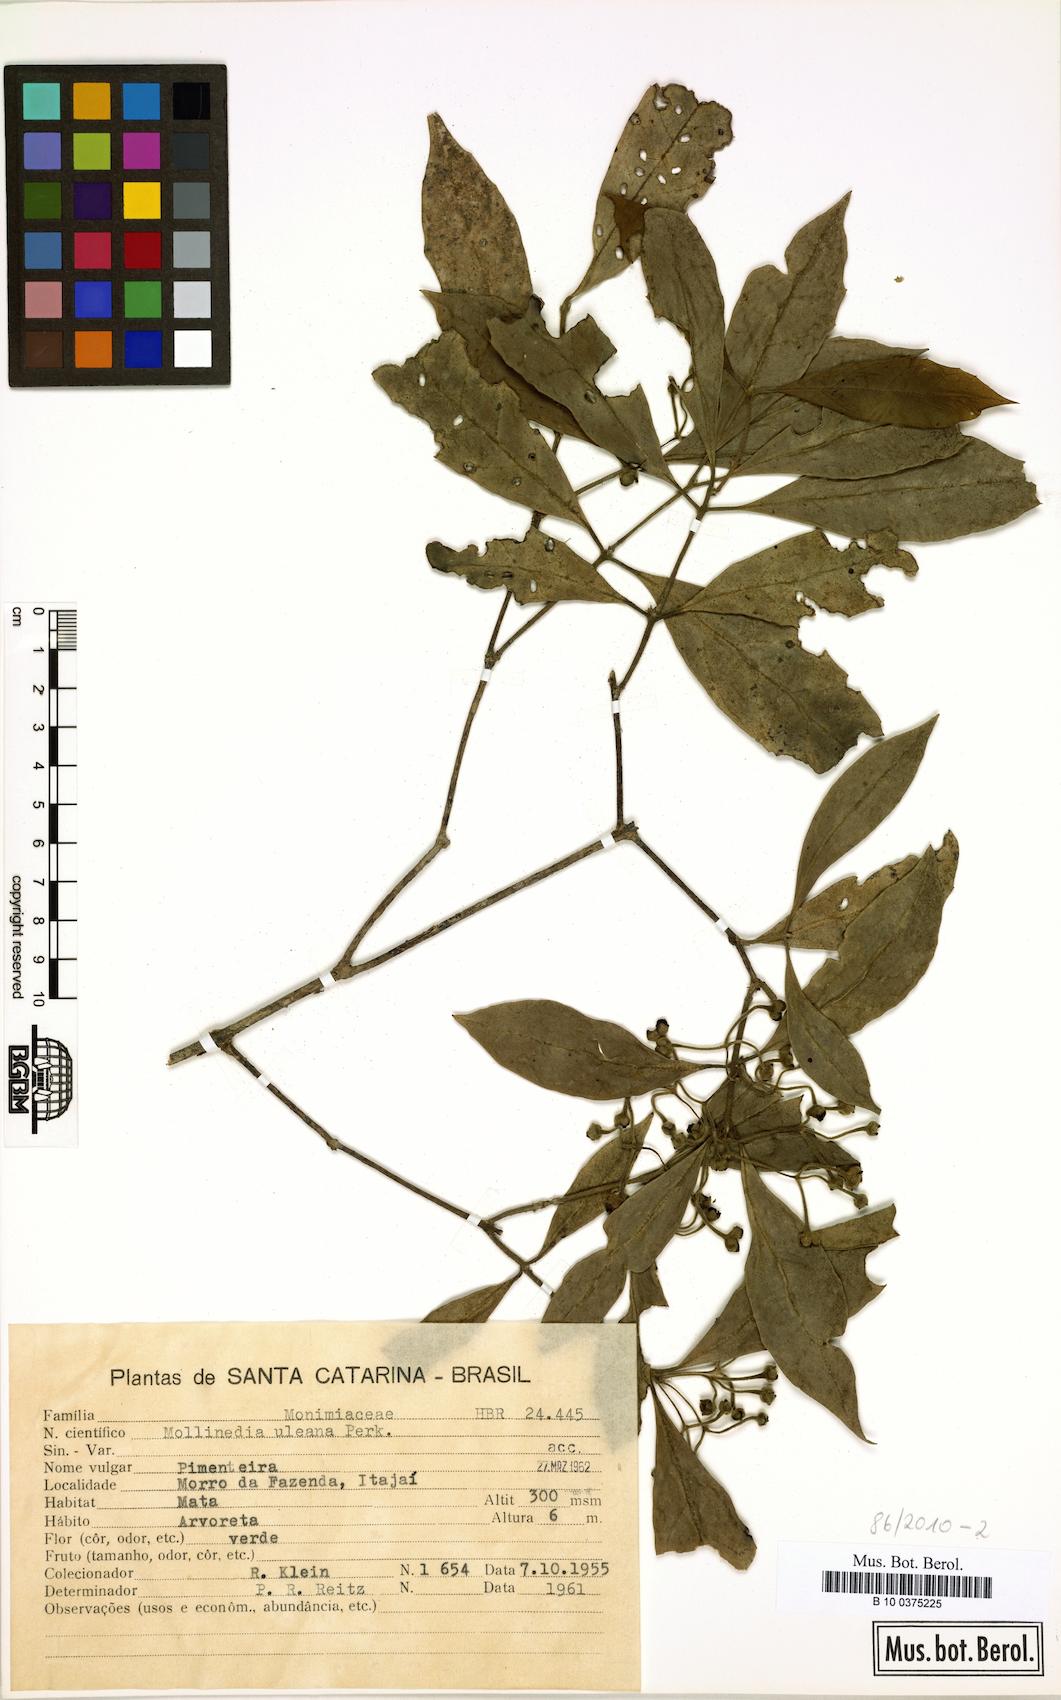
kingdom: Plantae
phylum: Tracheophyta
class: Magnoliopsida
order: Laurales
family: Monimiaceae
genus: Mollinedia
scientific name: Mollinedia uleana
